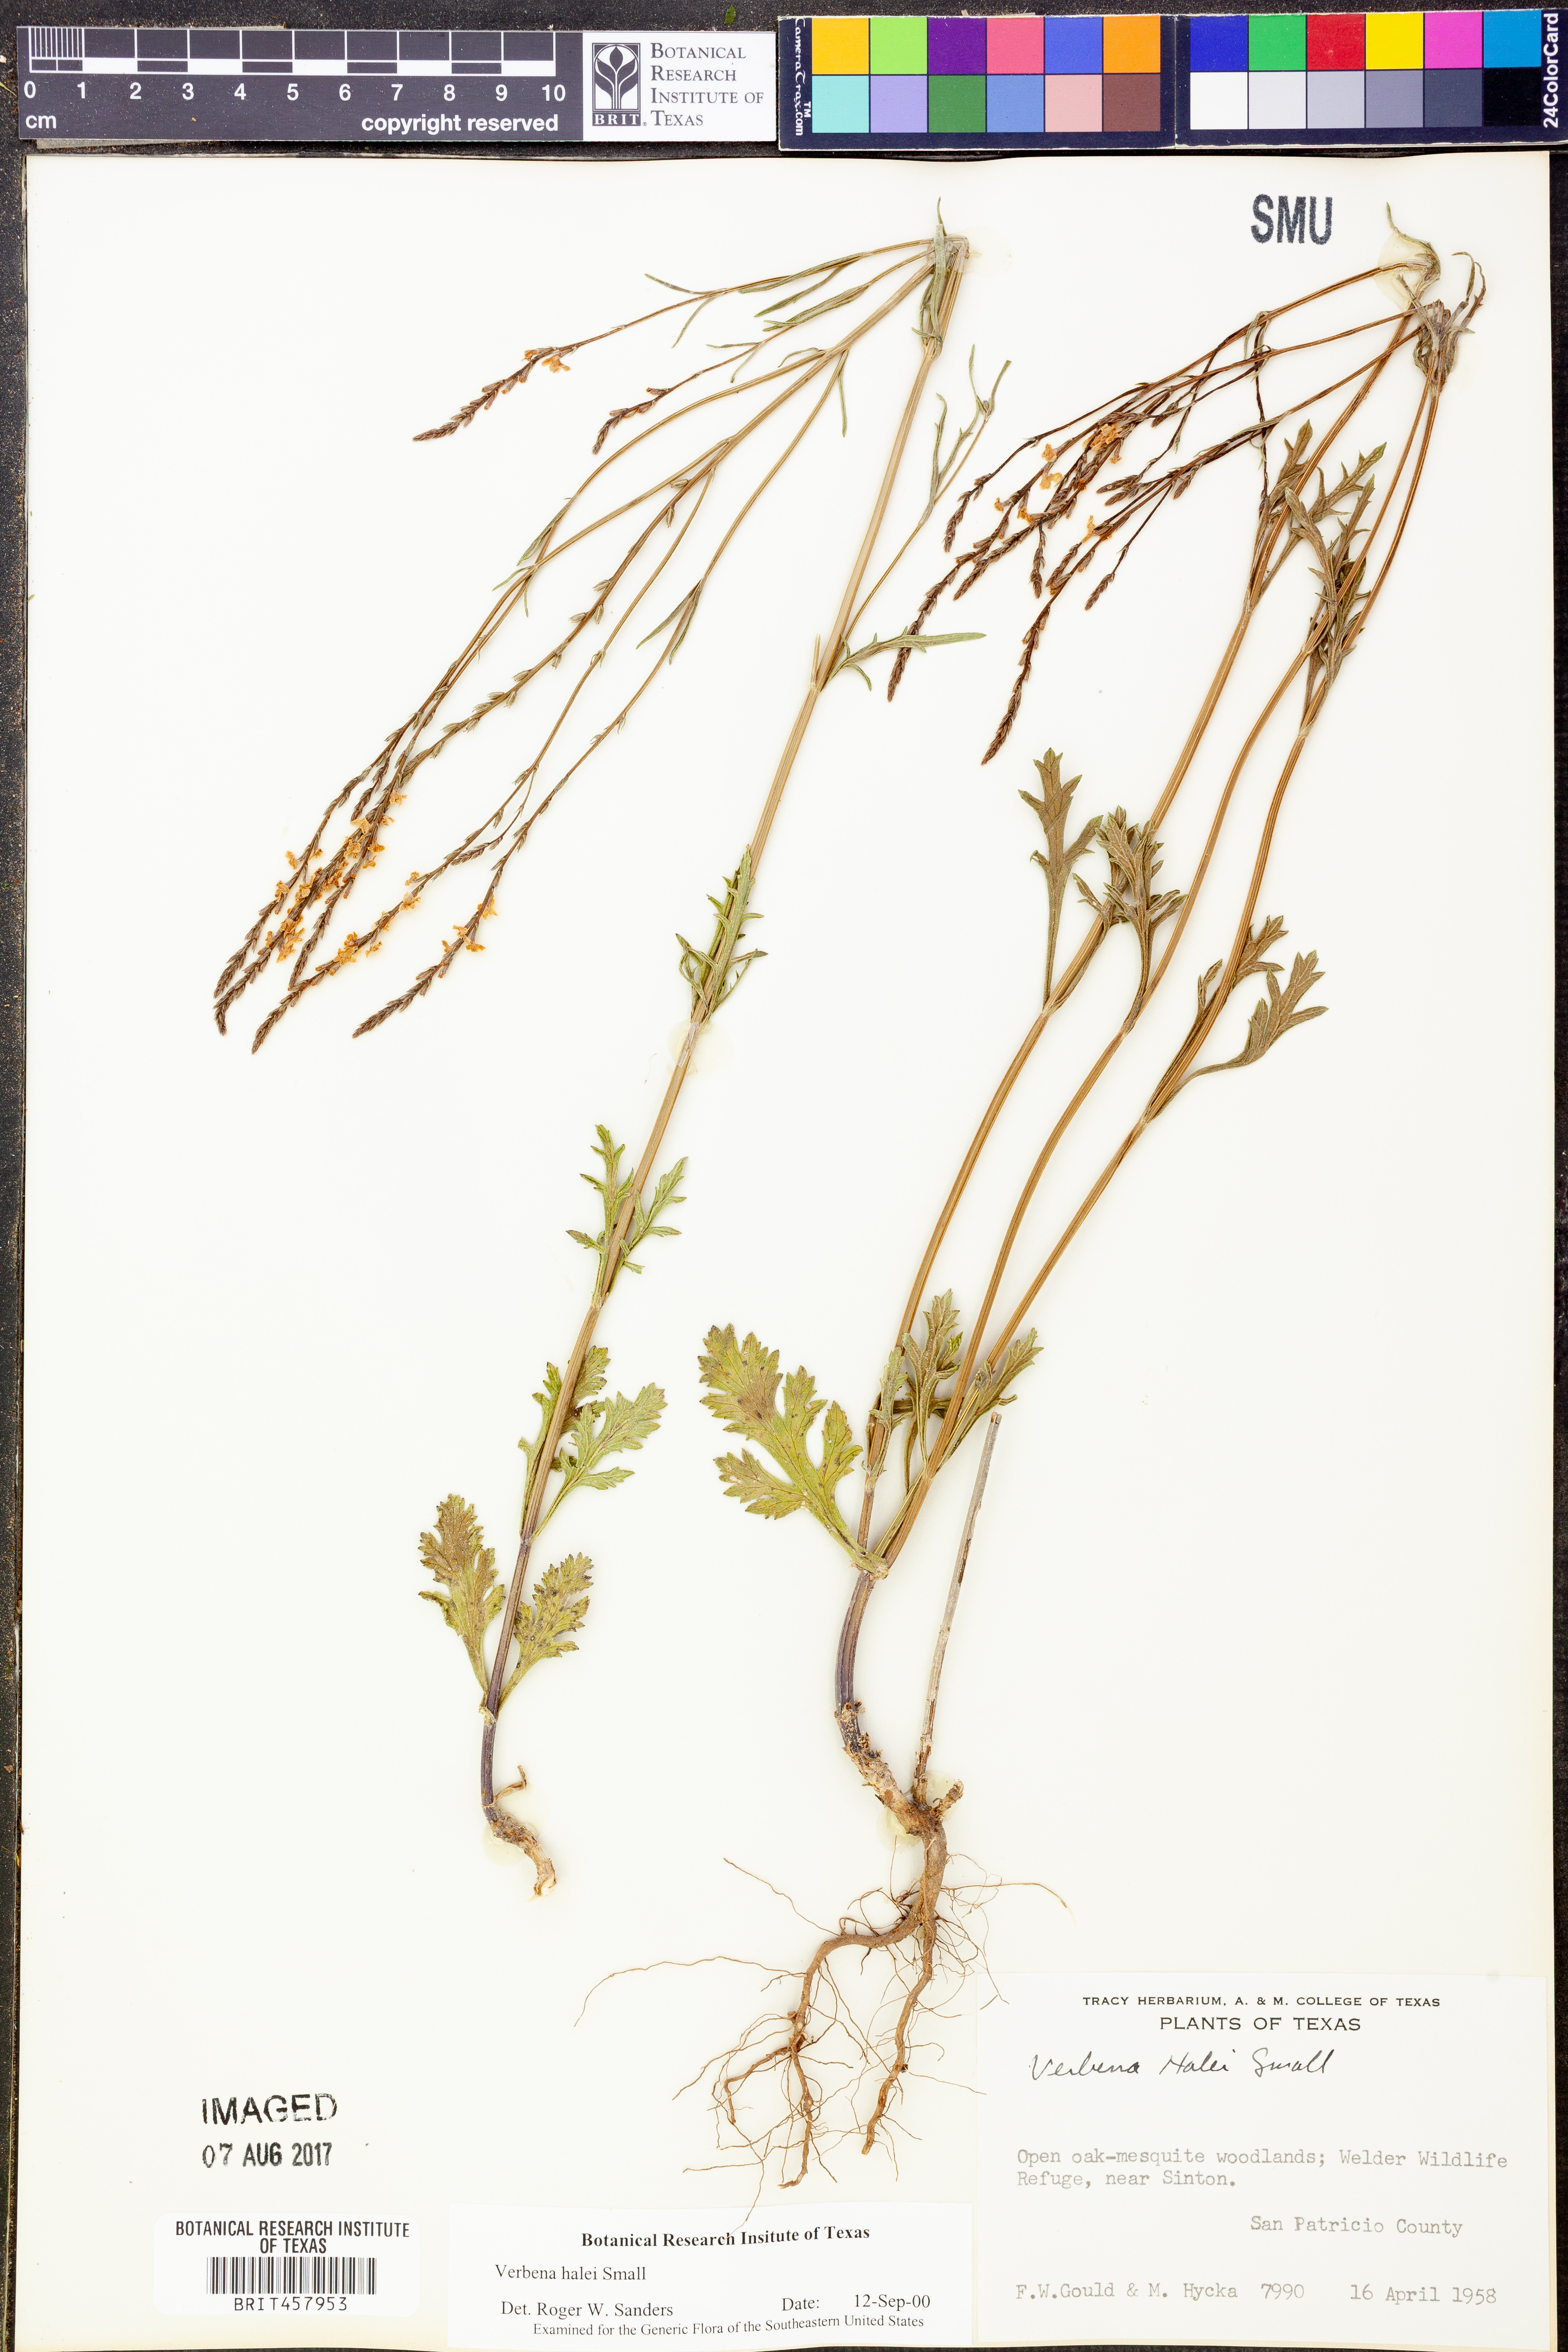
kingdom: Plantae
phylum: Tracheophyta
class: Magnoliopsida
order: Lamiales
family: Verbenaceae
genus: Verbena
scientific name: Verbena halei
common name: Texas vervain
